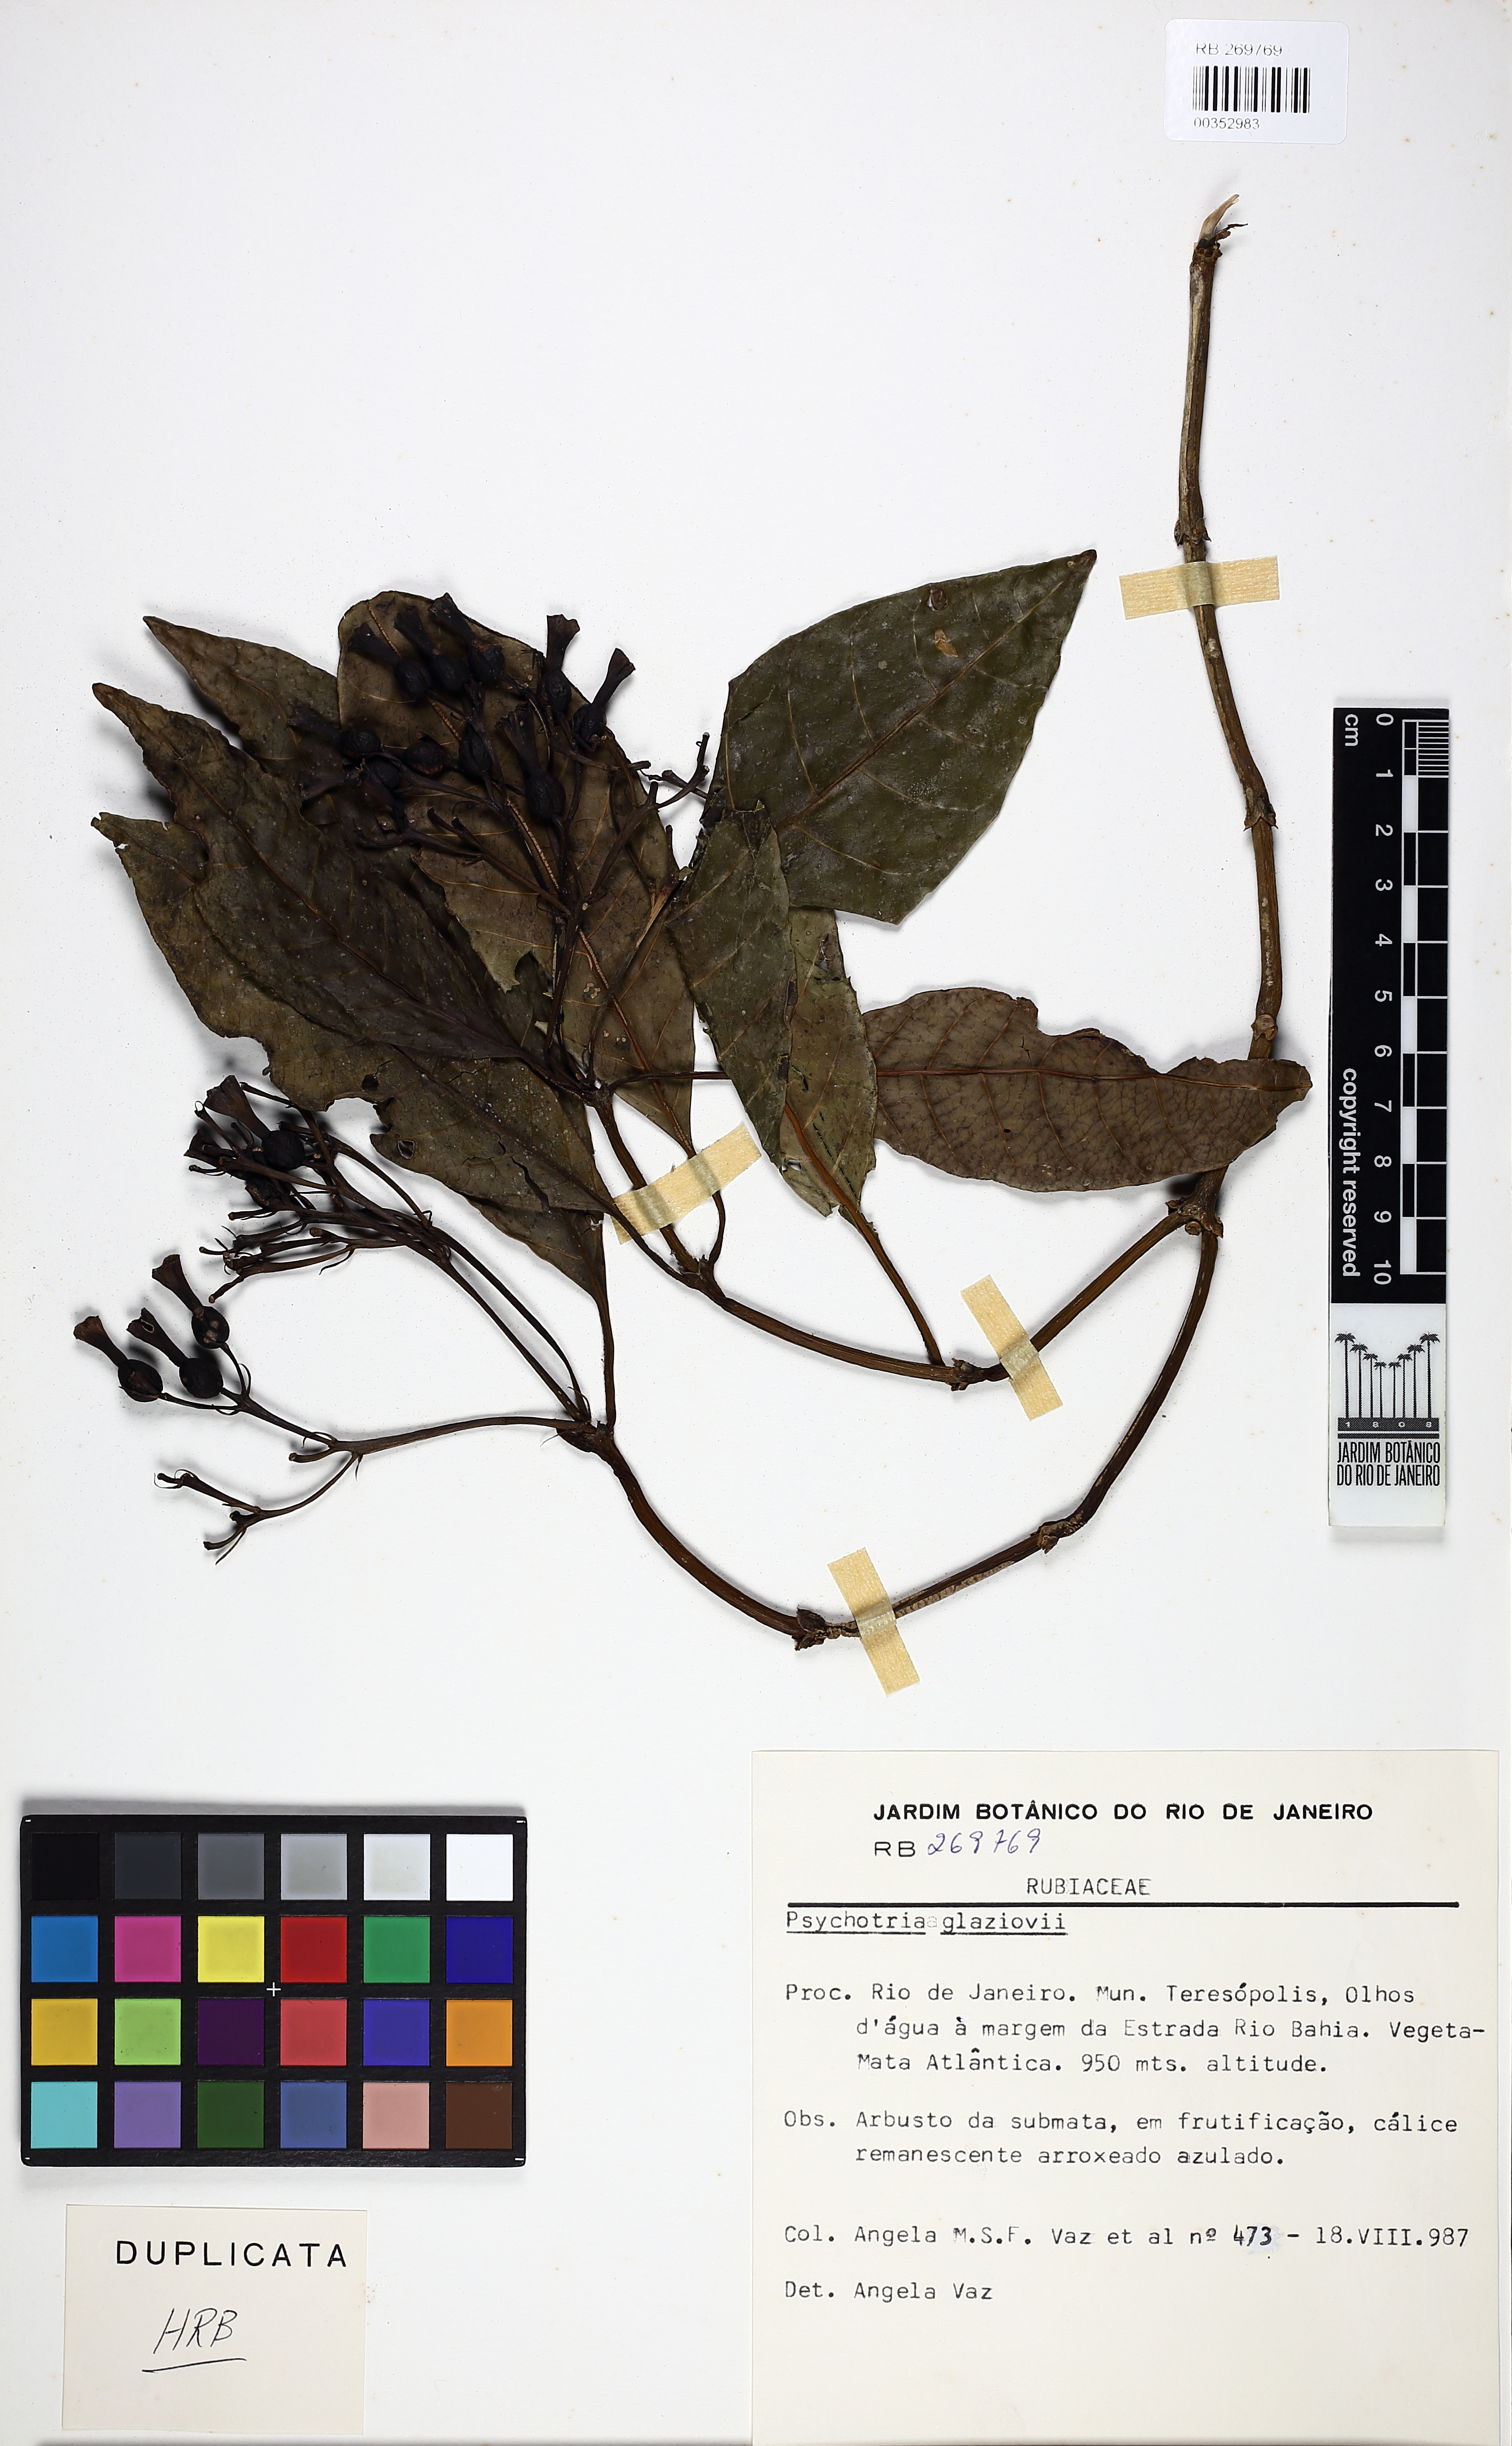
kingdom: Plantae
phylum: Tracheophyta
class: Magnoliopsida
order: Gentianales
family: Rubiaceae
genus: Psychotria
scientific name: Psychotria glaziovii
